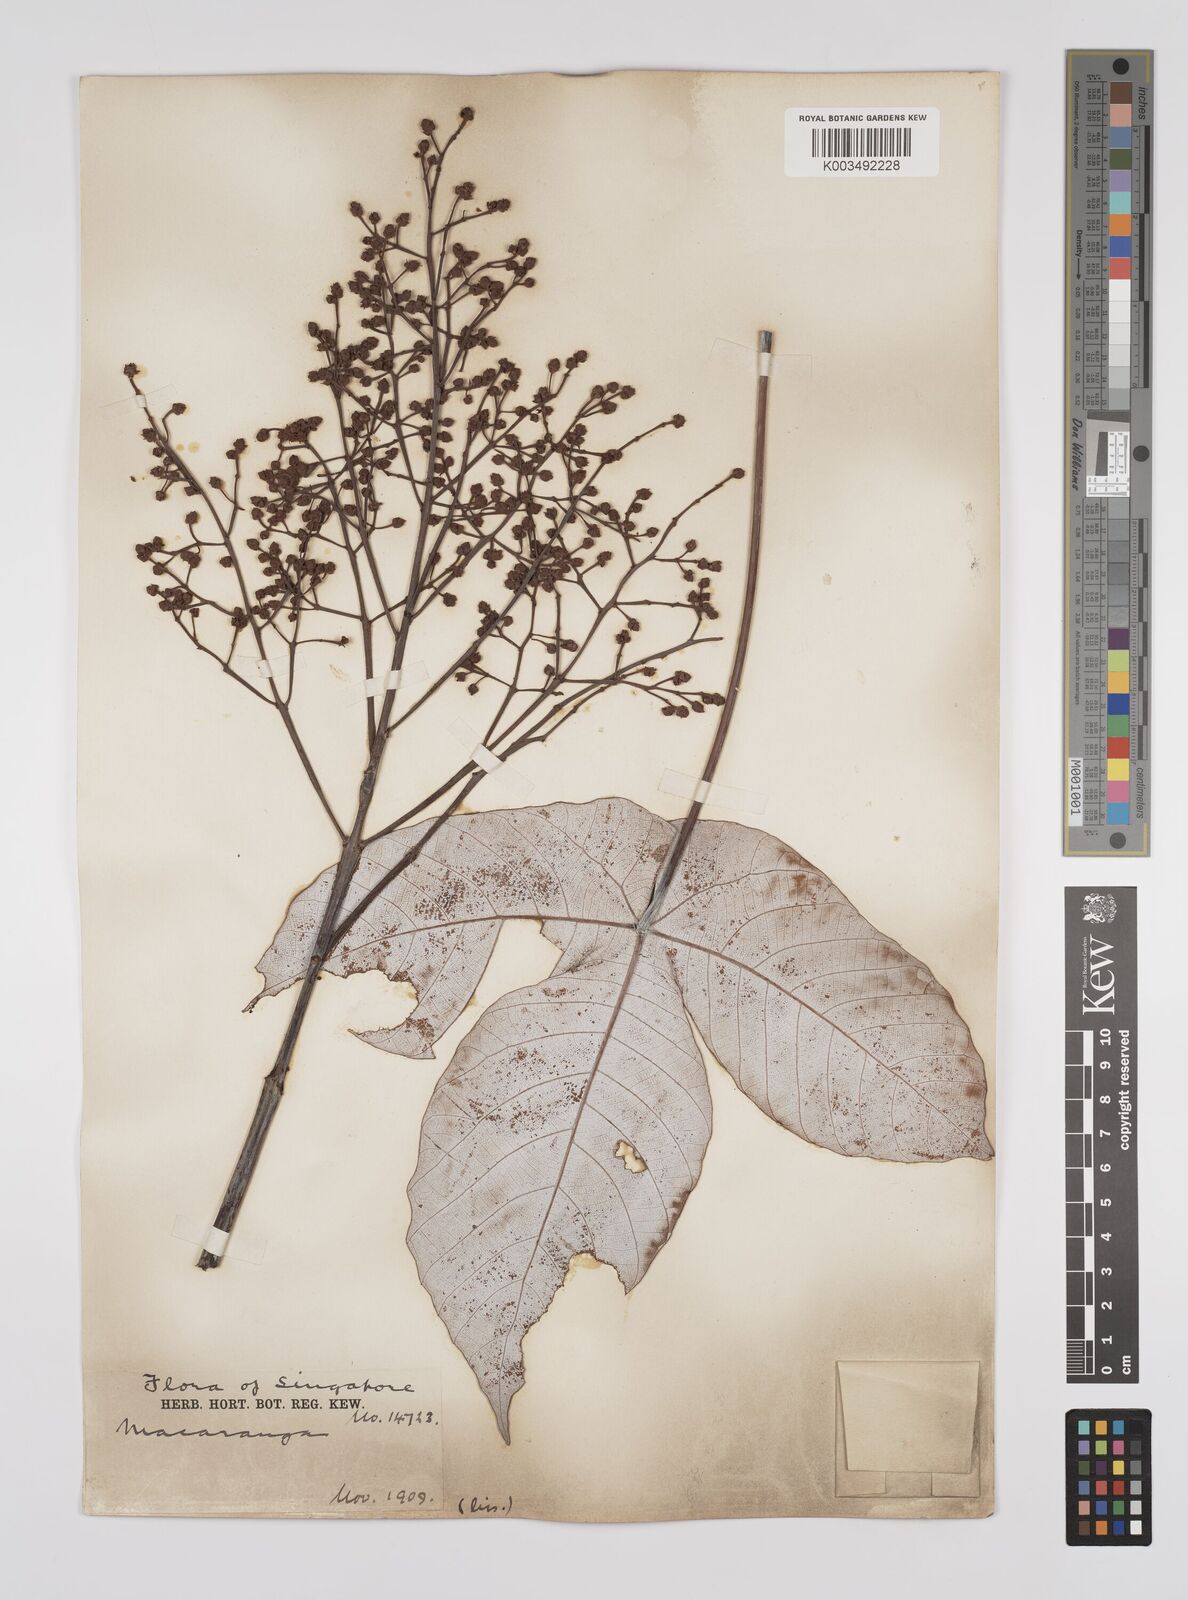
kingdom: Plantae
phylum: Tracheophyta
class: Magnoliopsida
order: Malpighiales
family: Euphorbiaceae
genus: Macaranga
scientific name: Macaranga hypoleuca
